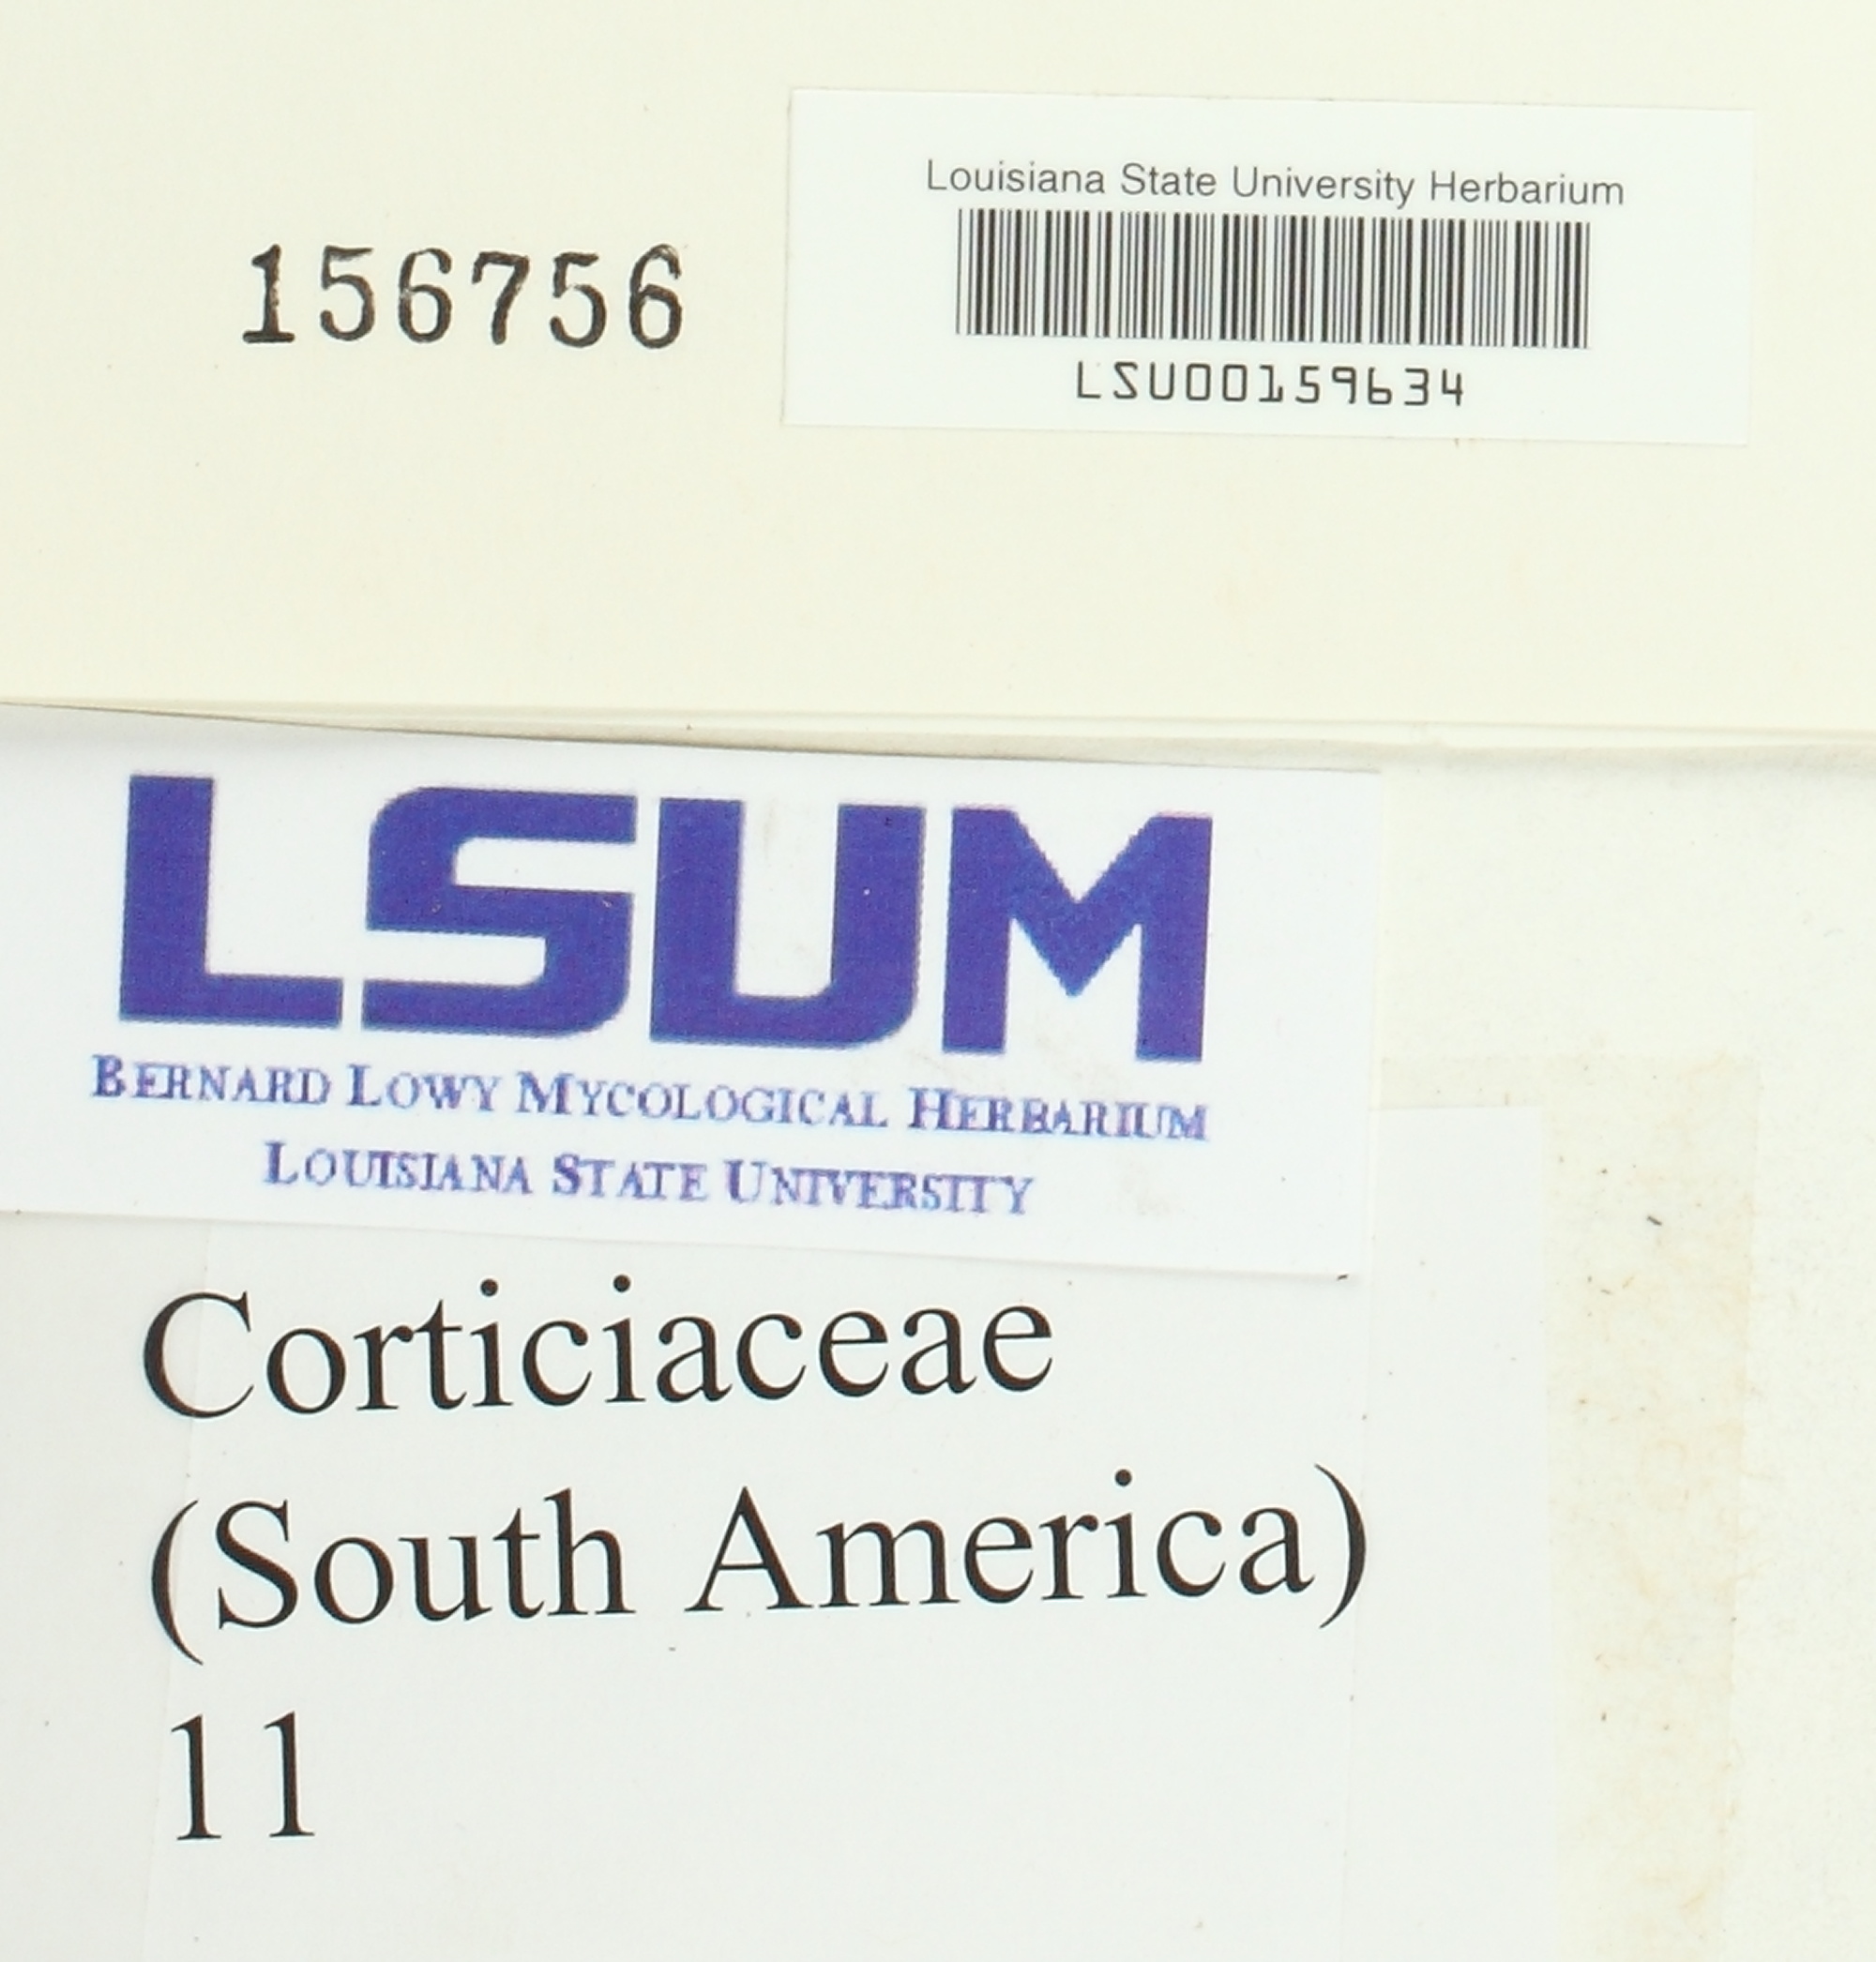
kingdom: Fungi
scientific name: Fungi
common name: Fungi
